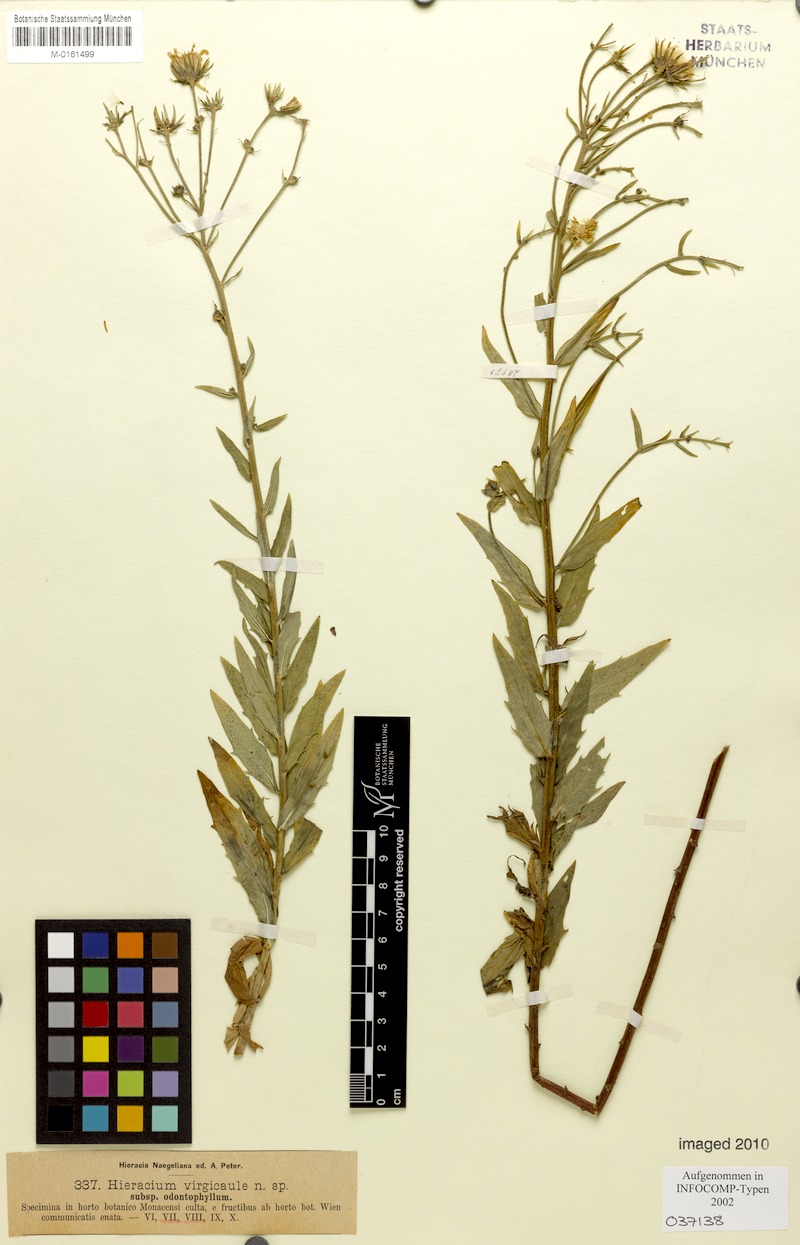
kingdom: Plantae
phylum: Tracheophyta
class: Magnoliopsida
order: Asterales
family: Asteraceae
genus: Hieracium
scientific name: Hieracium virgicaule
